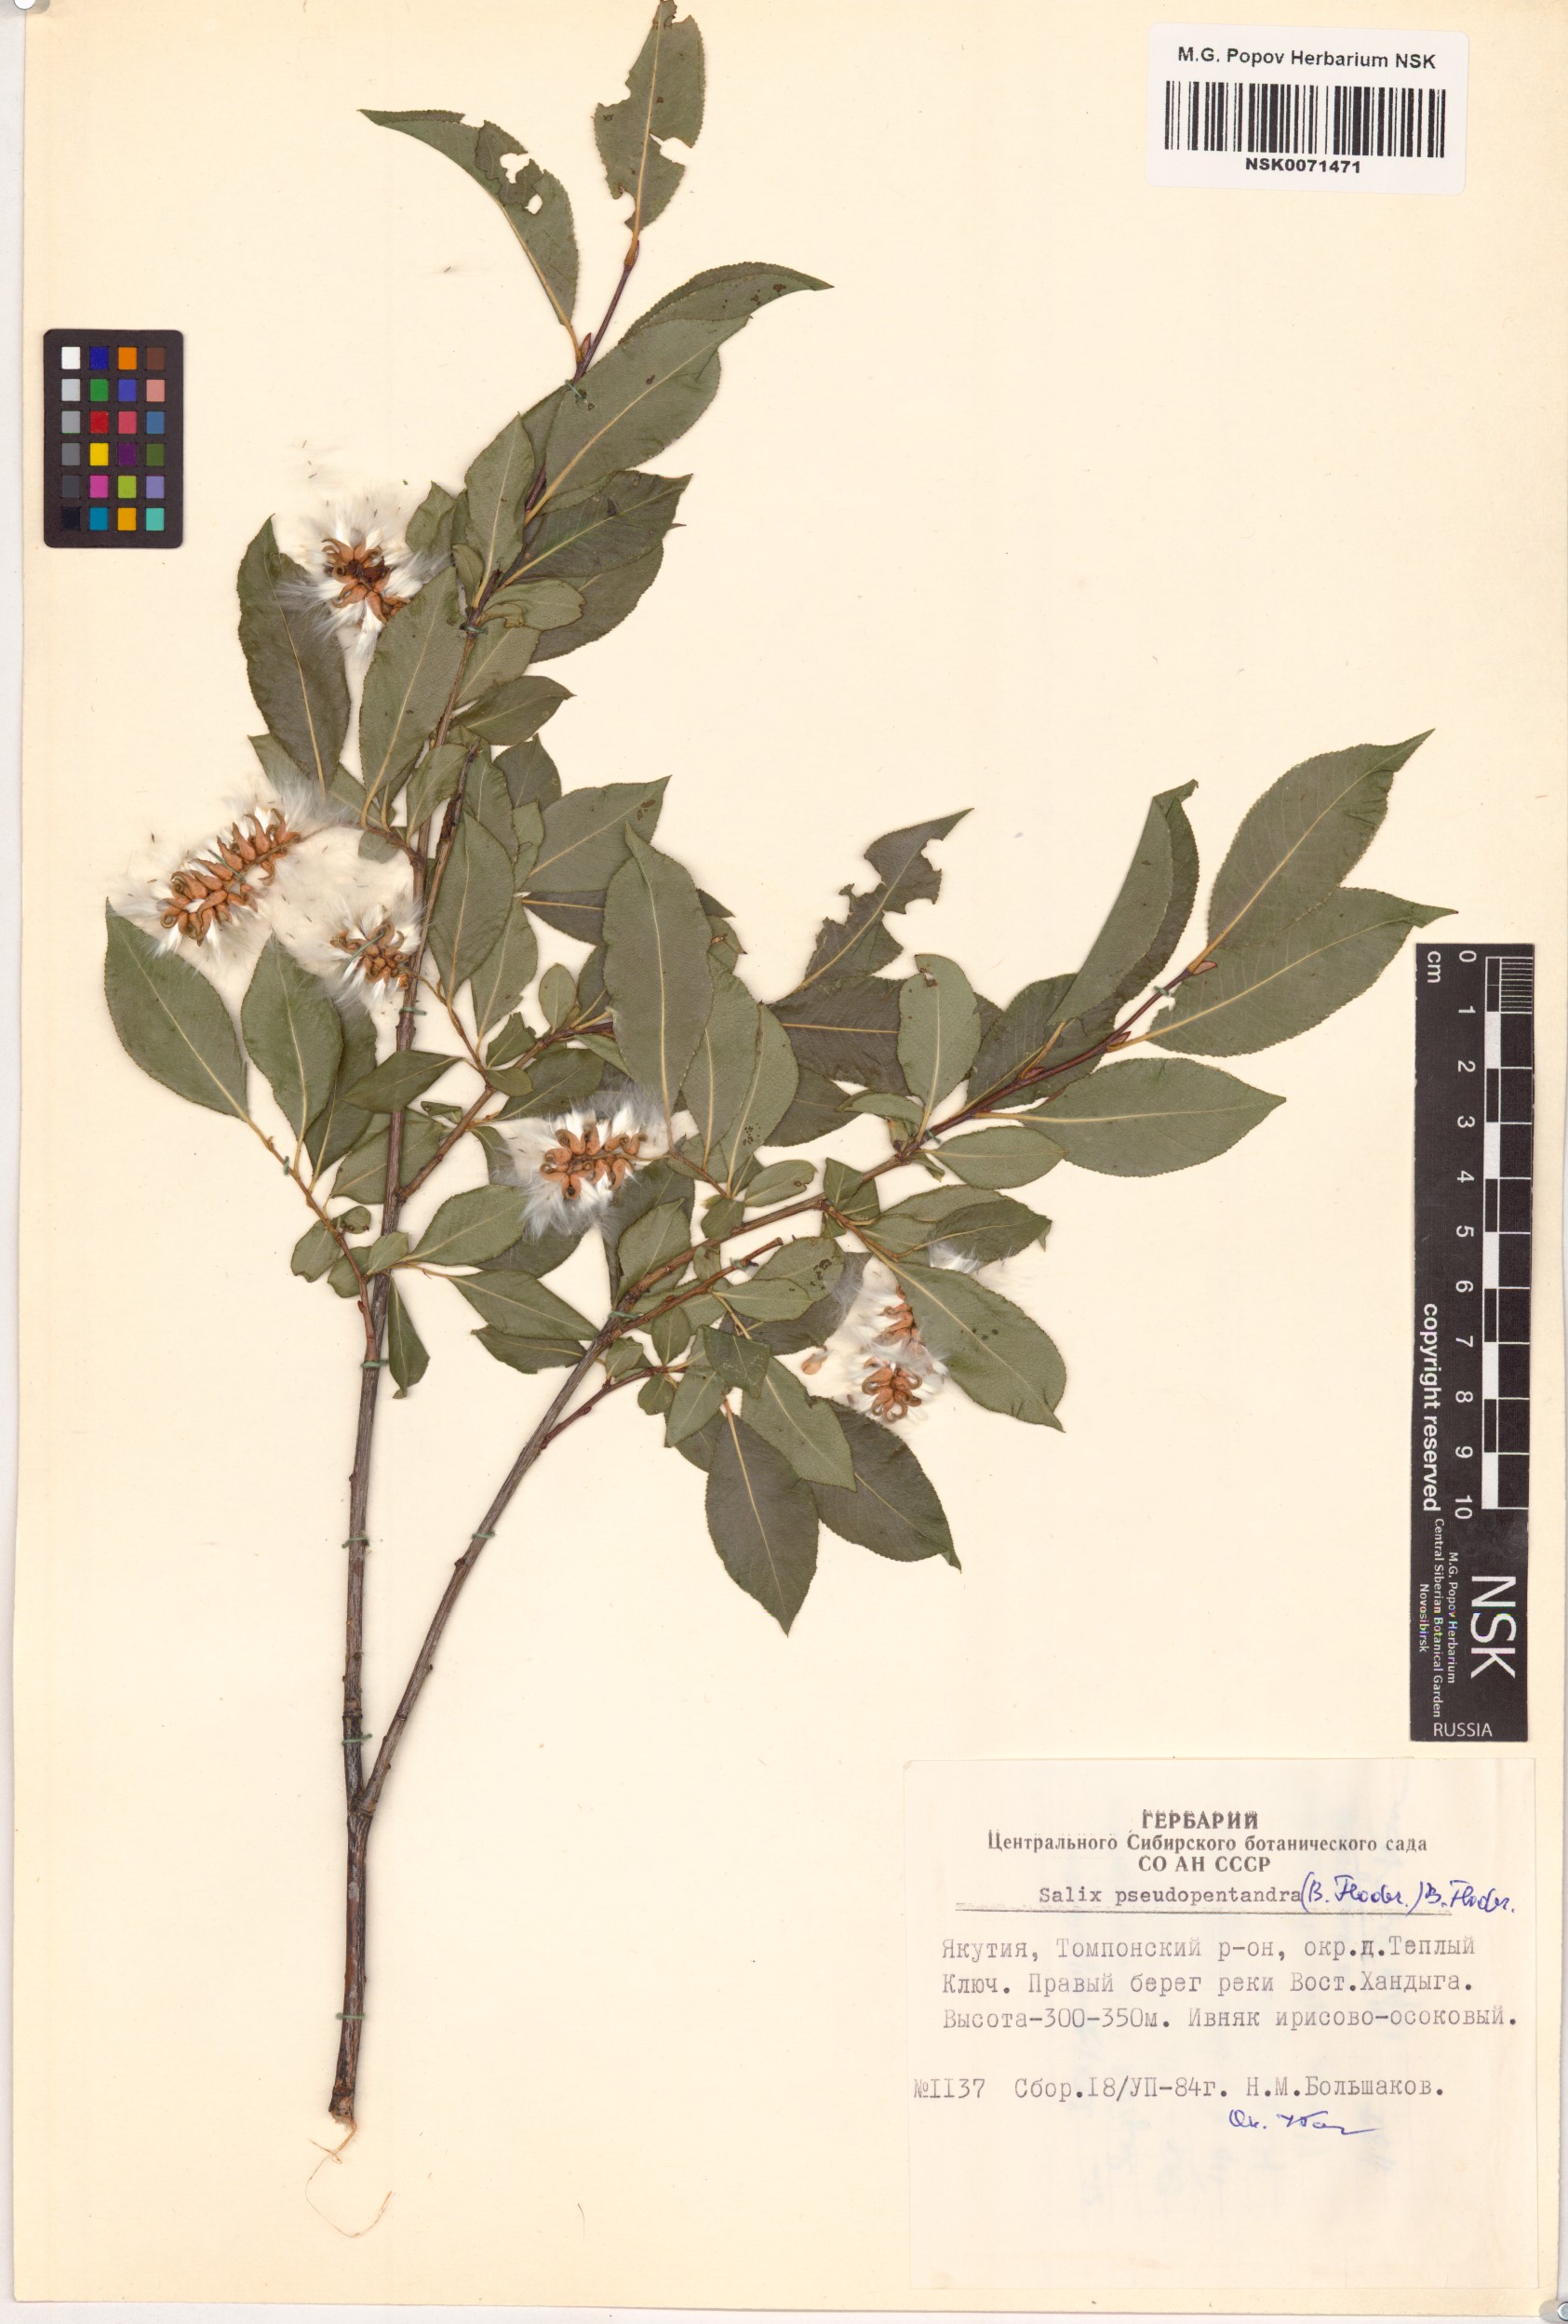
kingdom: Plantae
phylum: Tracheophyta
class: Magnoliopsida
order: Malpighiales
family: Salicaceae
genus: Salix
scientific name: Salix pseudopentandra
